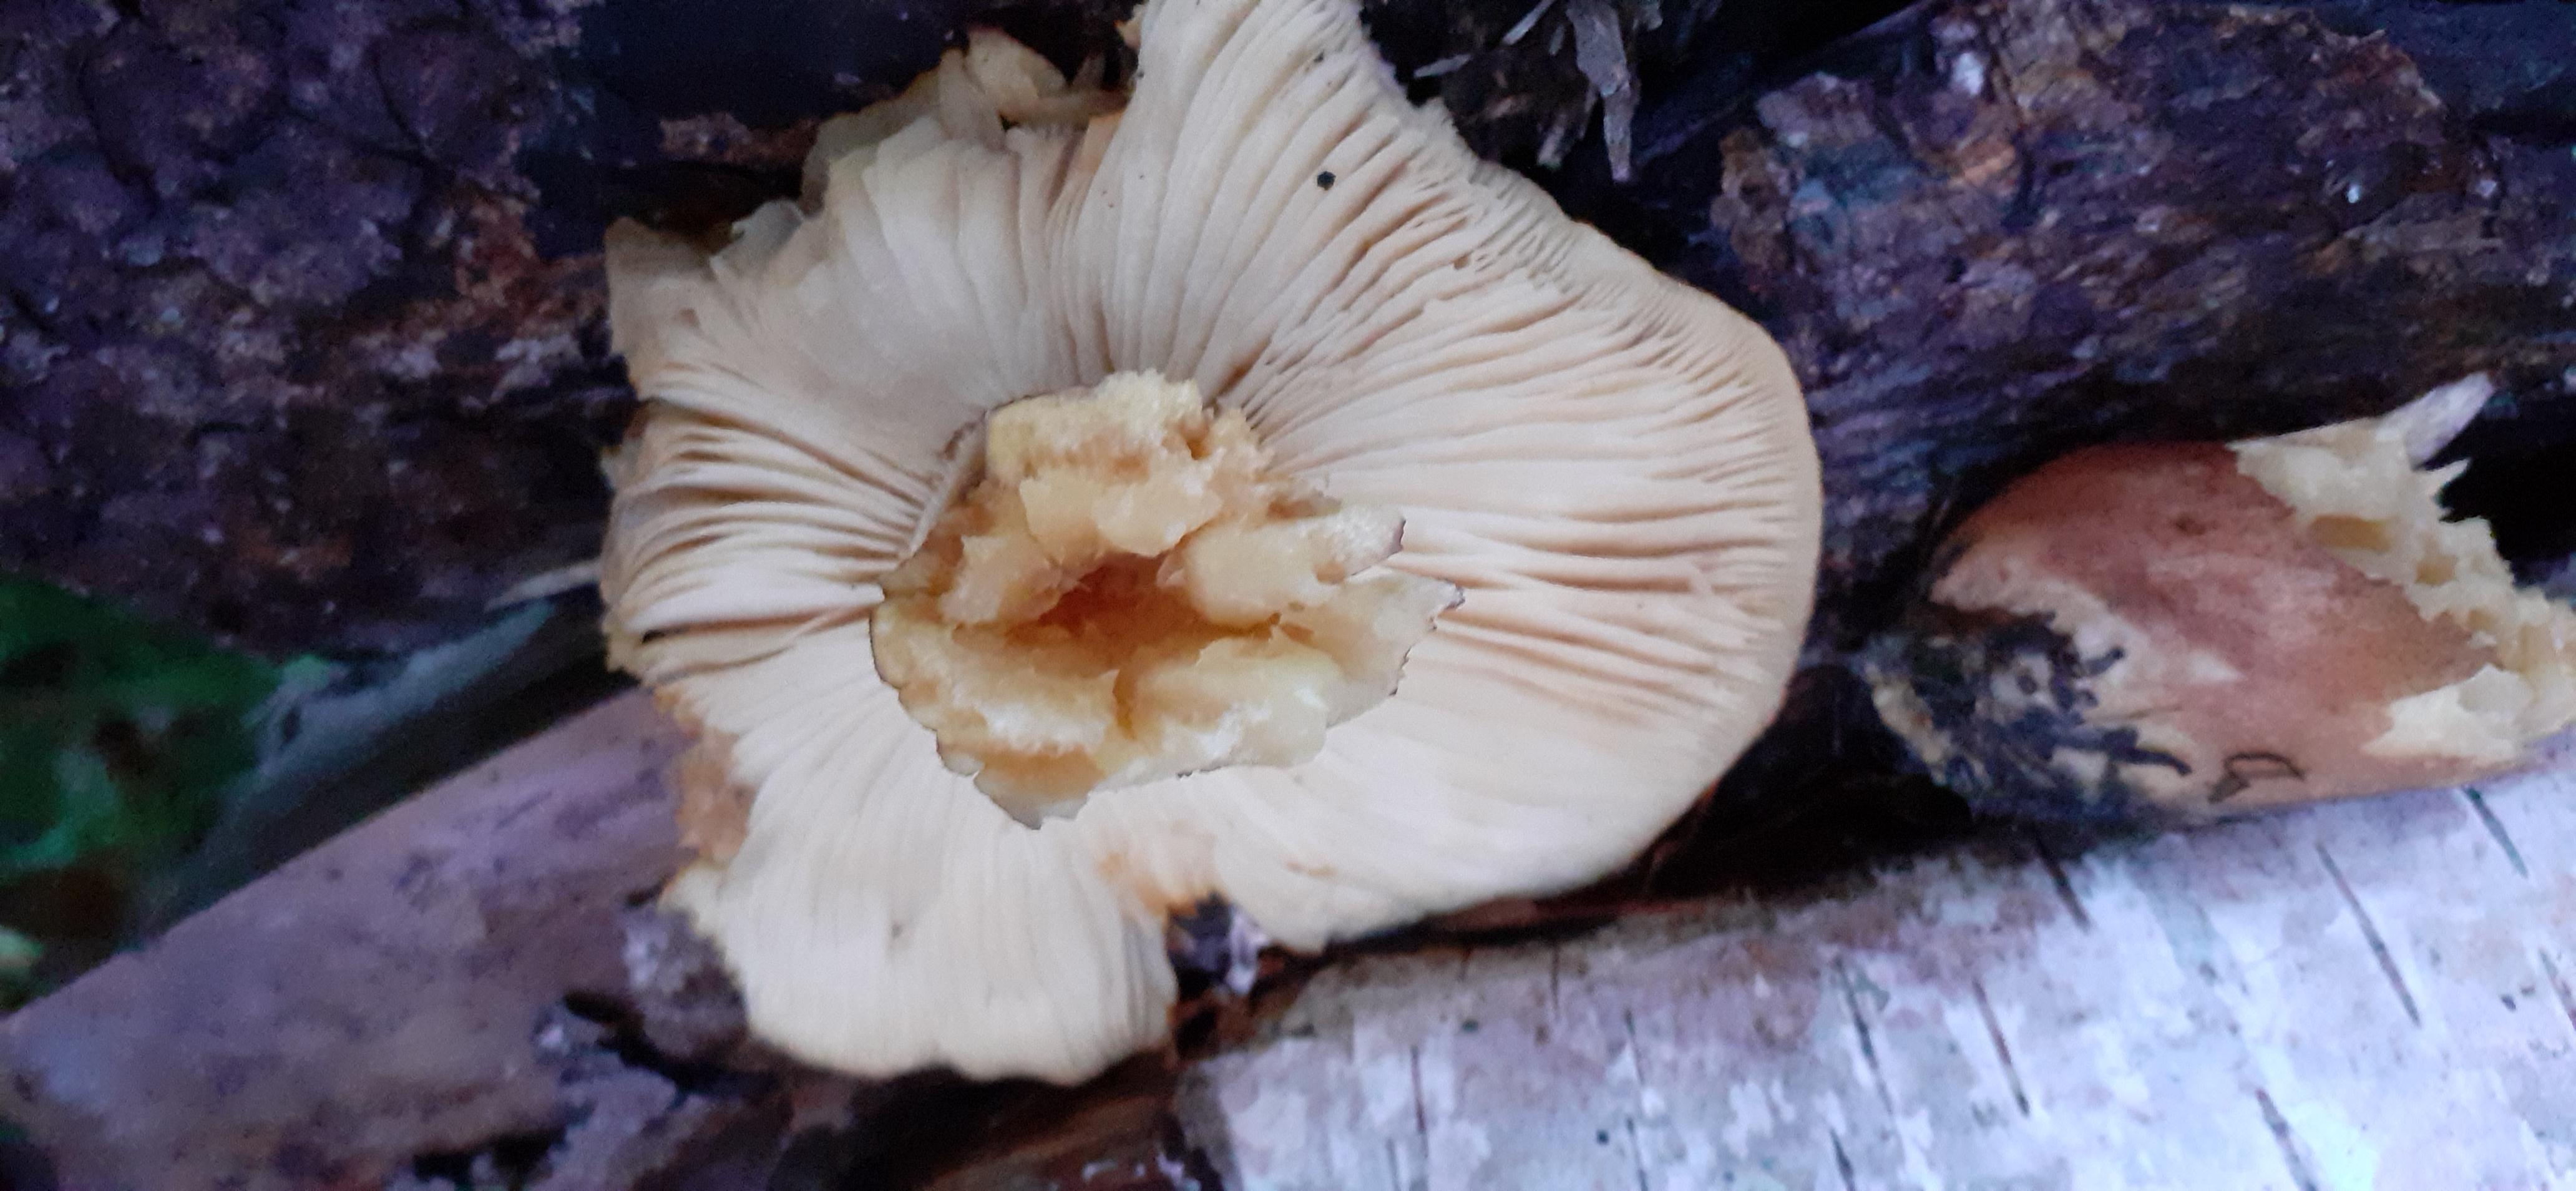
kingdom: Fungi
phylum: Basidiomycota
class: Agaricomycetes
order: Agaricales
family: Tricholomataceae
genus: Tricholomopsis
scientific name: Tricholomopsis rutilans
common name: purpur-væbnerhat
